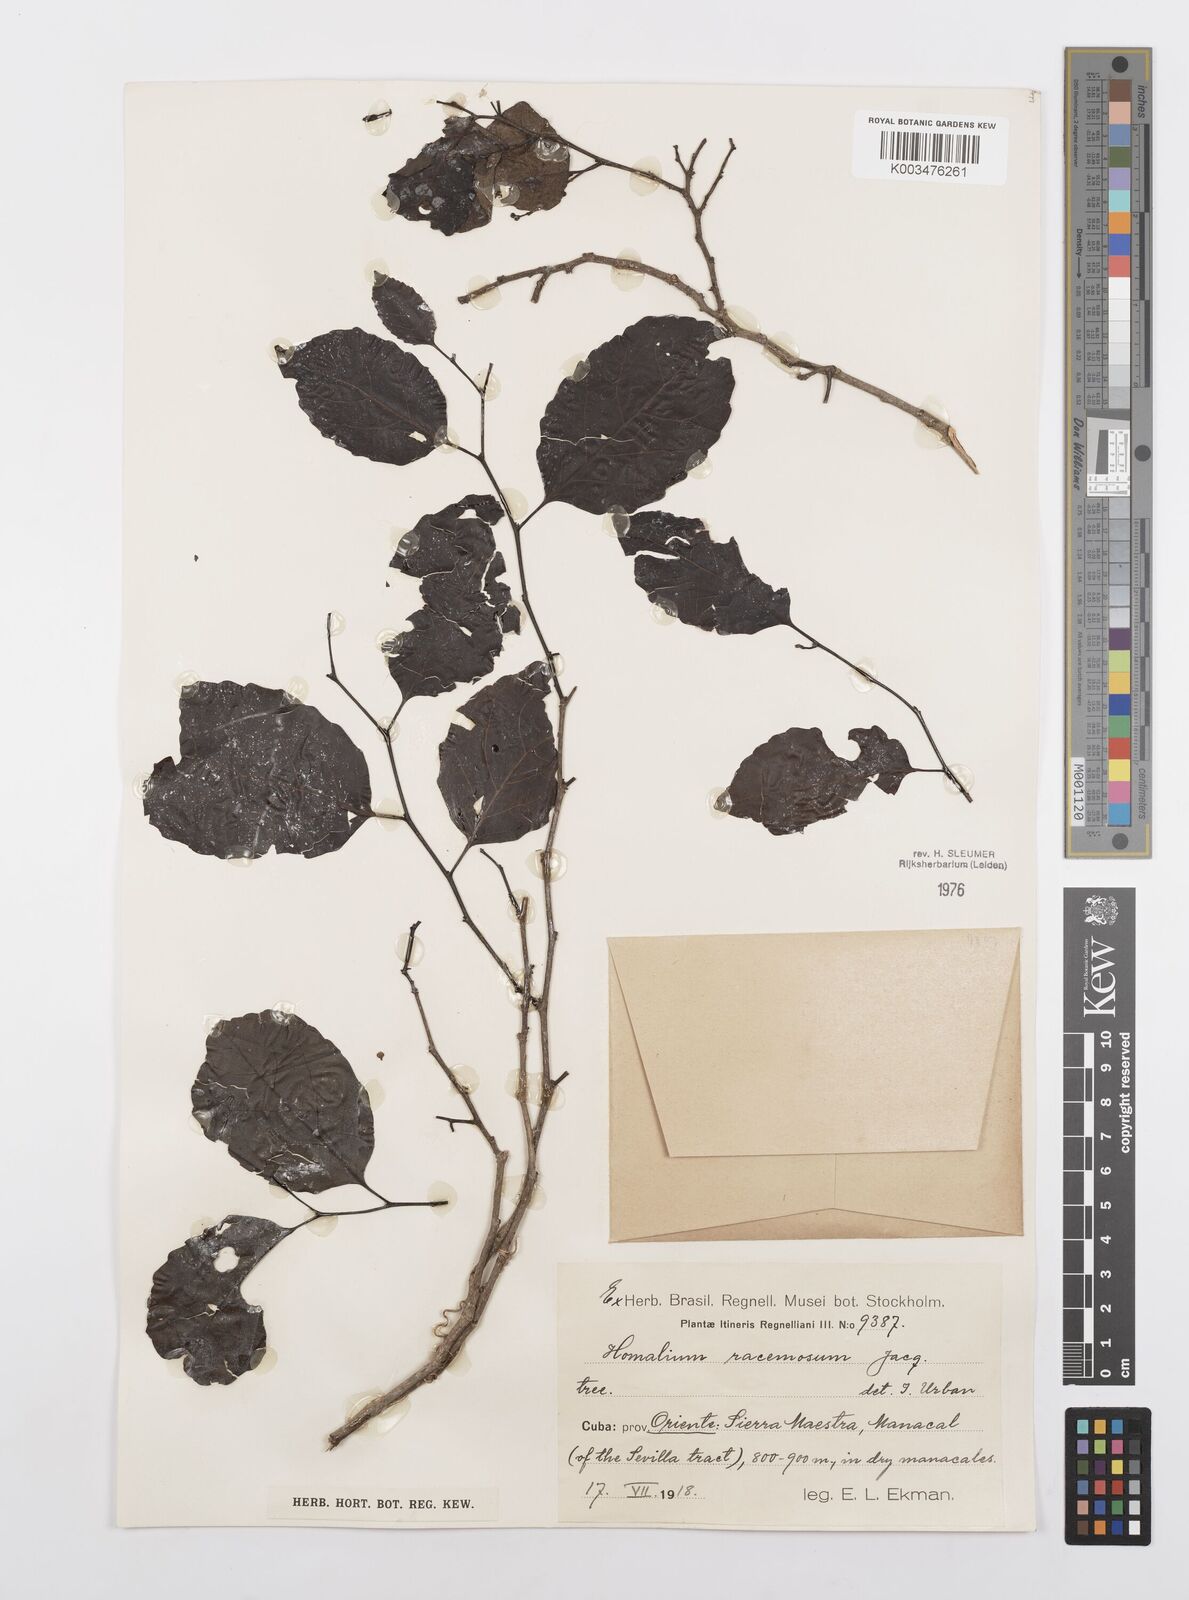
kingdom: Plantae
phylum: Tracheophyta
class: Magnoliopsida
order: Malpighiales
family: Salicaceae
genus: Homalium
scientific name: Homalium racemosum
